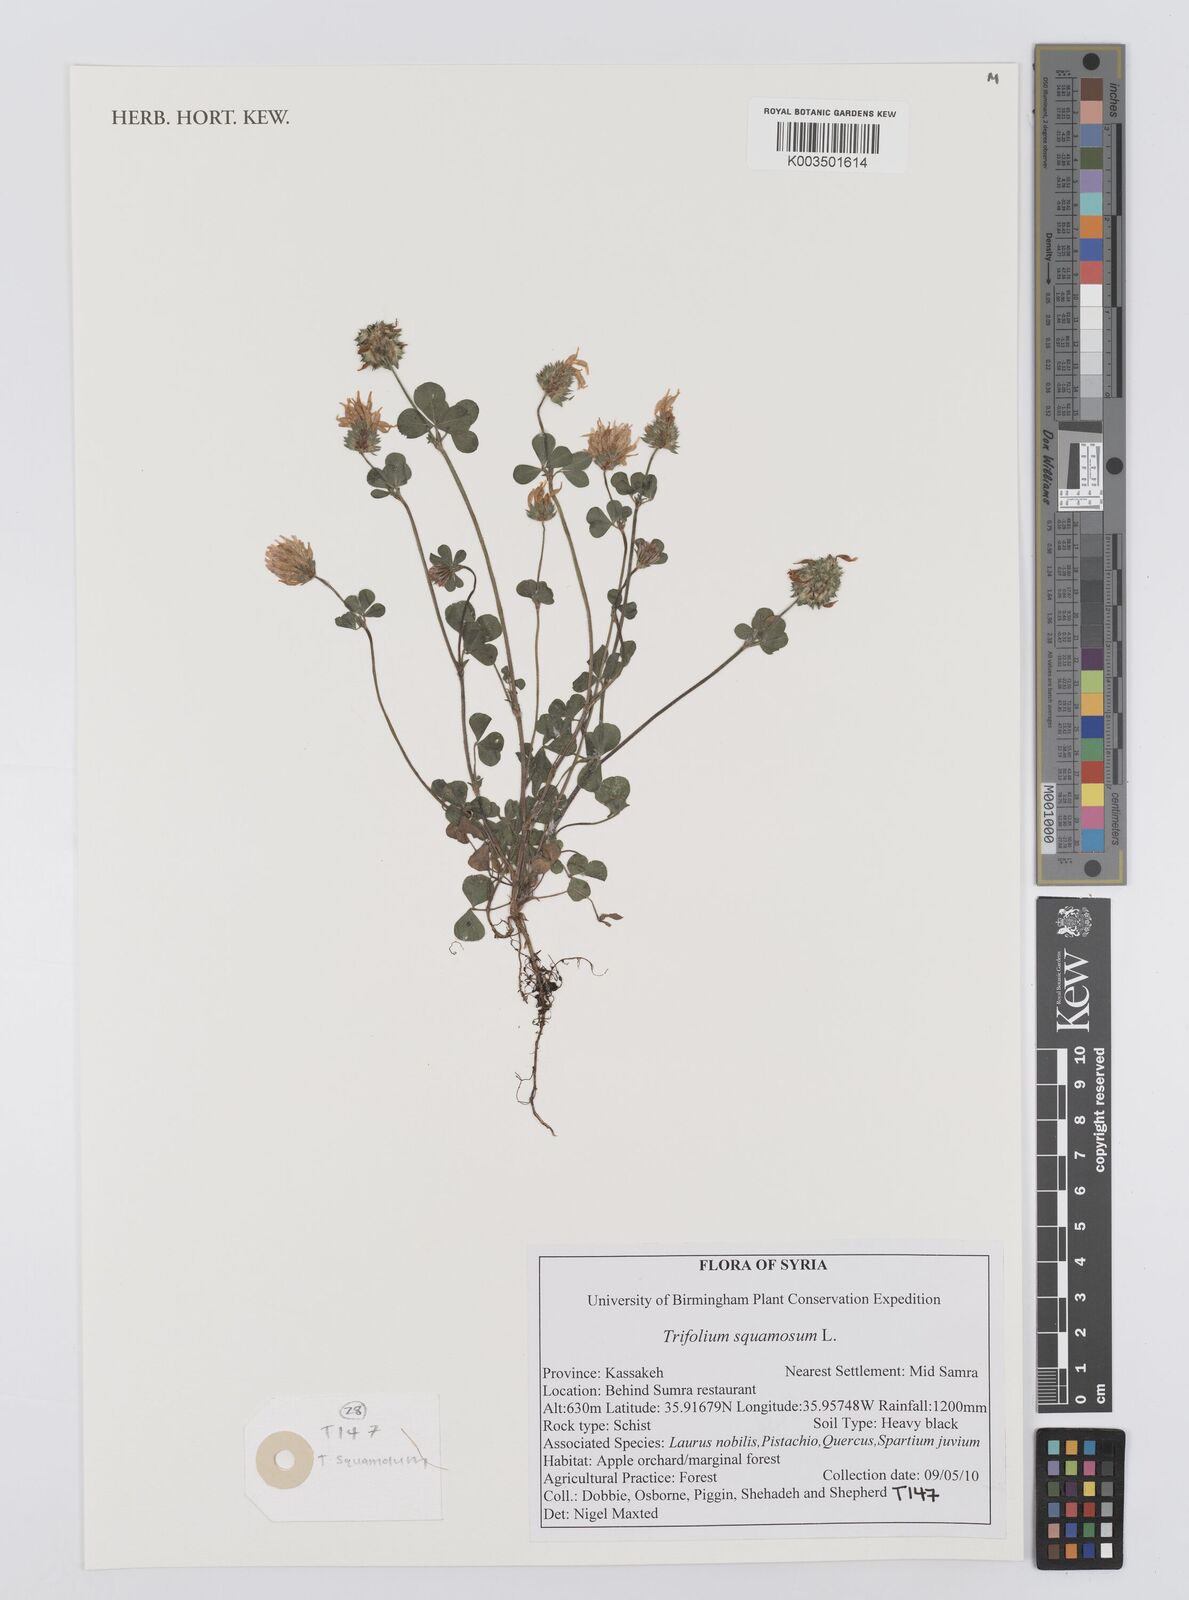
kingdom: Plantae
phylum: Tracheophyta
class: Magnoliopsida
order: Fabales
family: Fabaceae
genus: Trifolium
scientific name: Trifolium squamosum
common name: Sea clover
